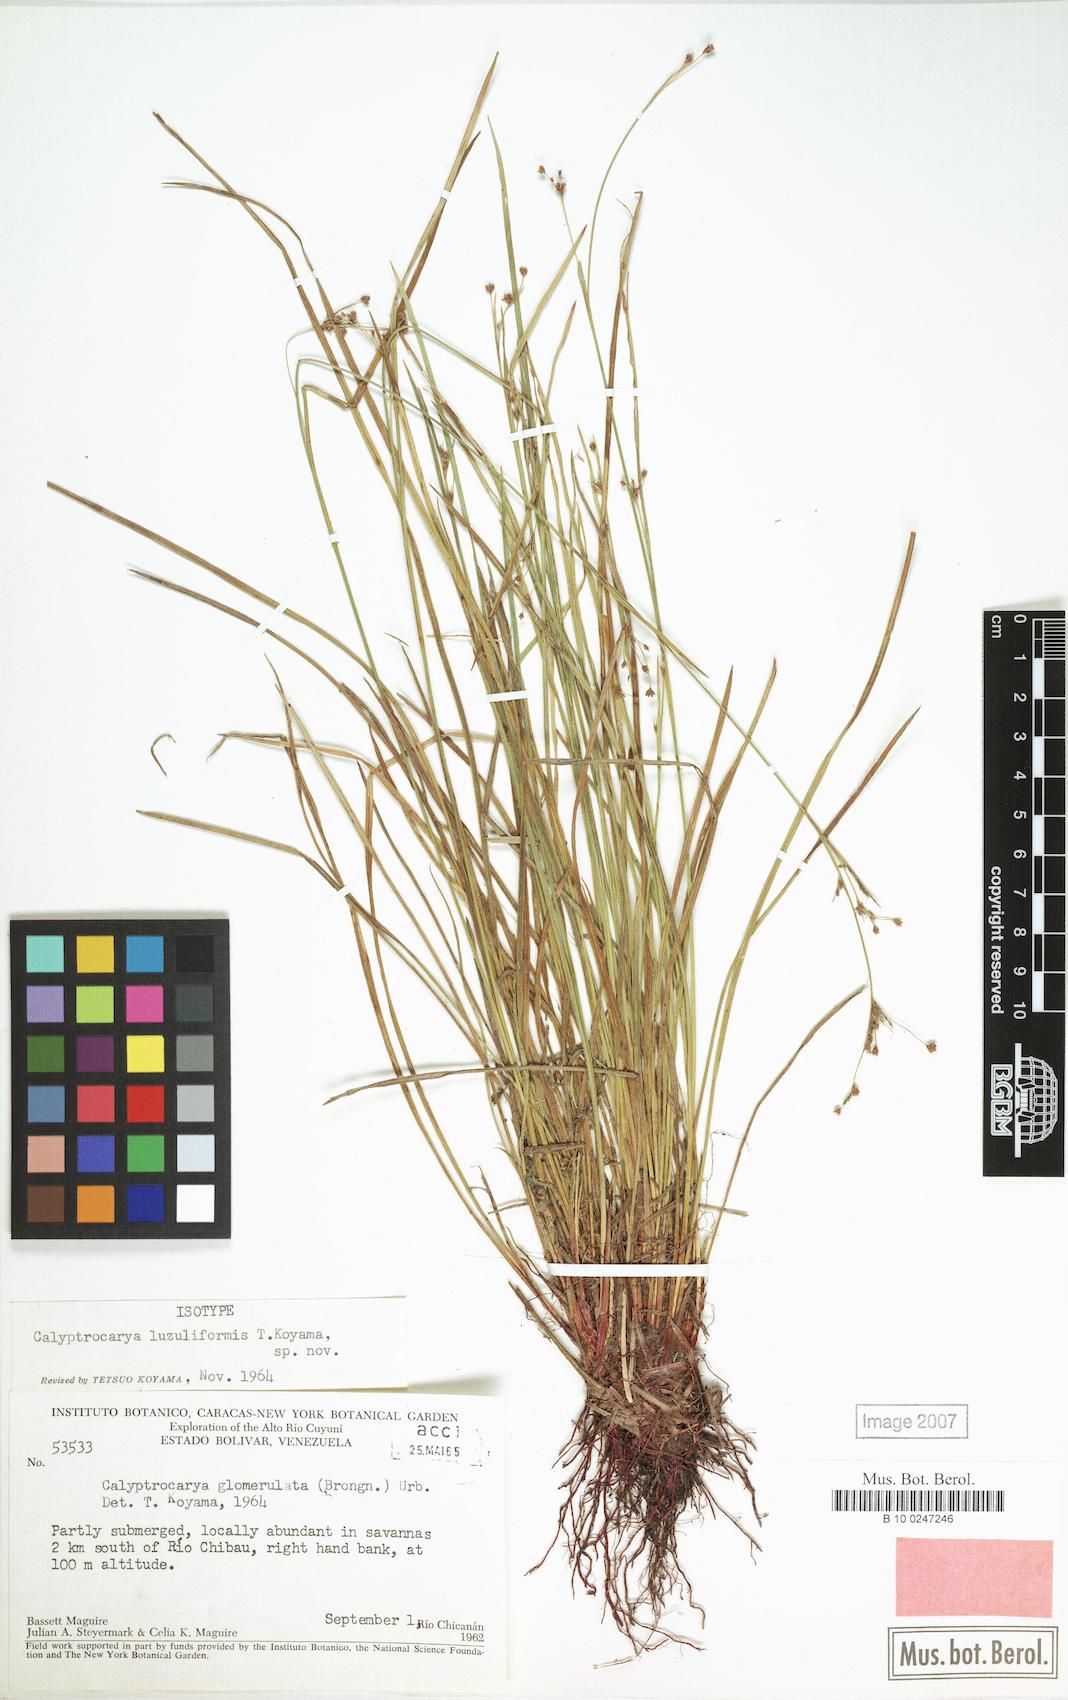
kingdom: Plantae
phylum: Tracheophyta
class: Liliopsida
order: Poales
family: Cyperaceae
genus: Calyptrocarya
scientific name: Calyptrocarya luzuliformis
